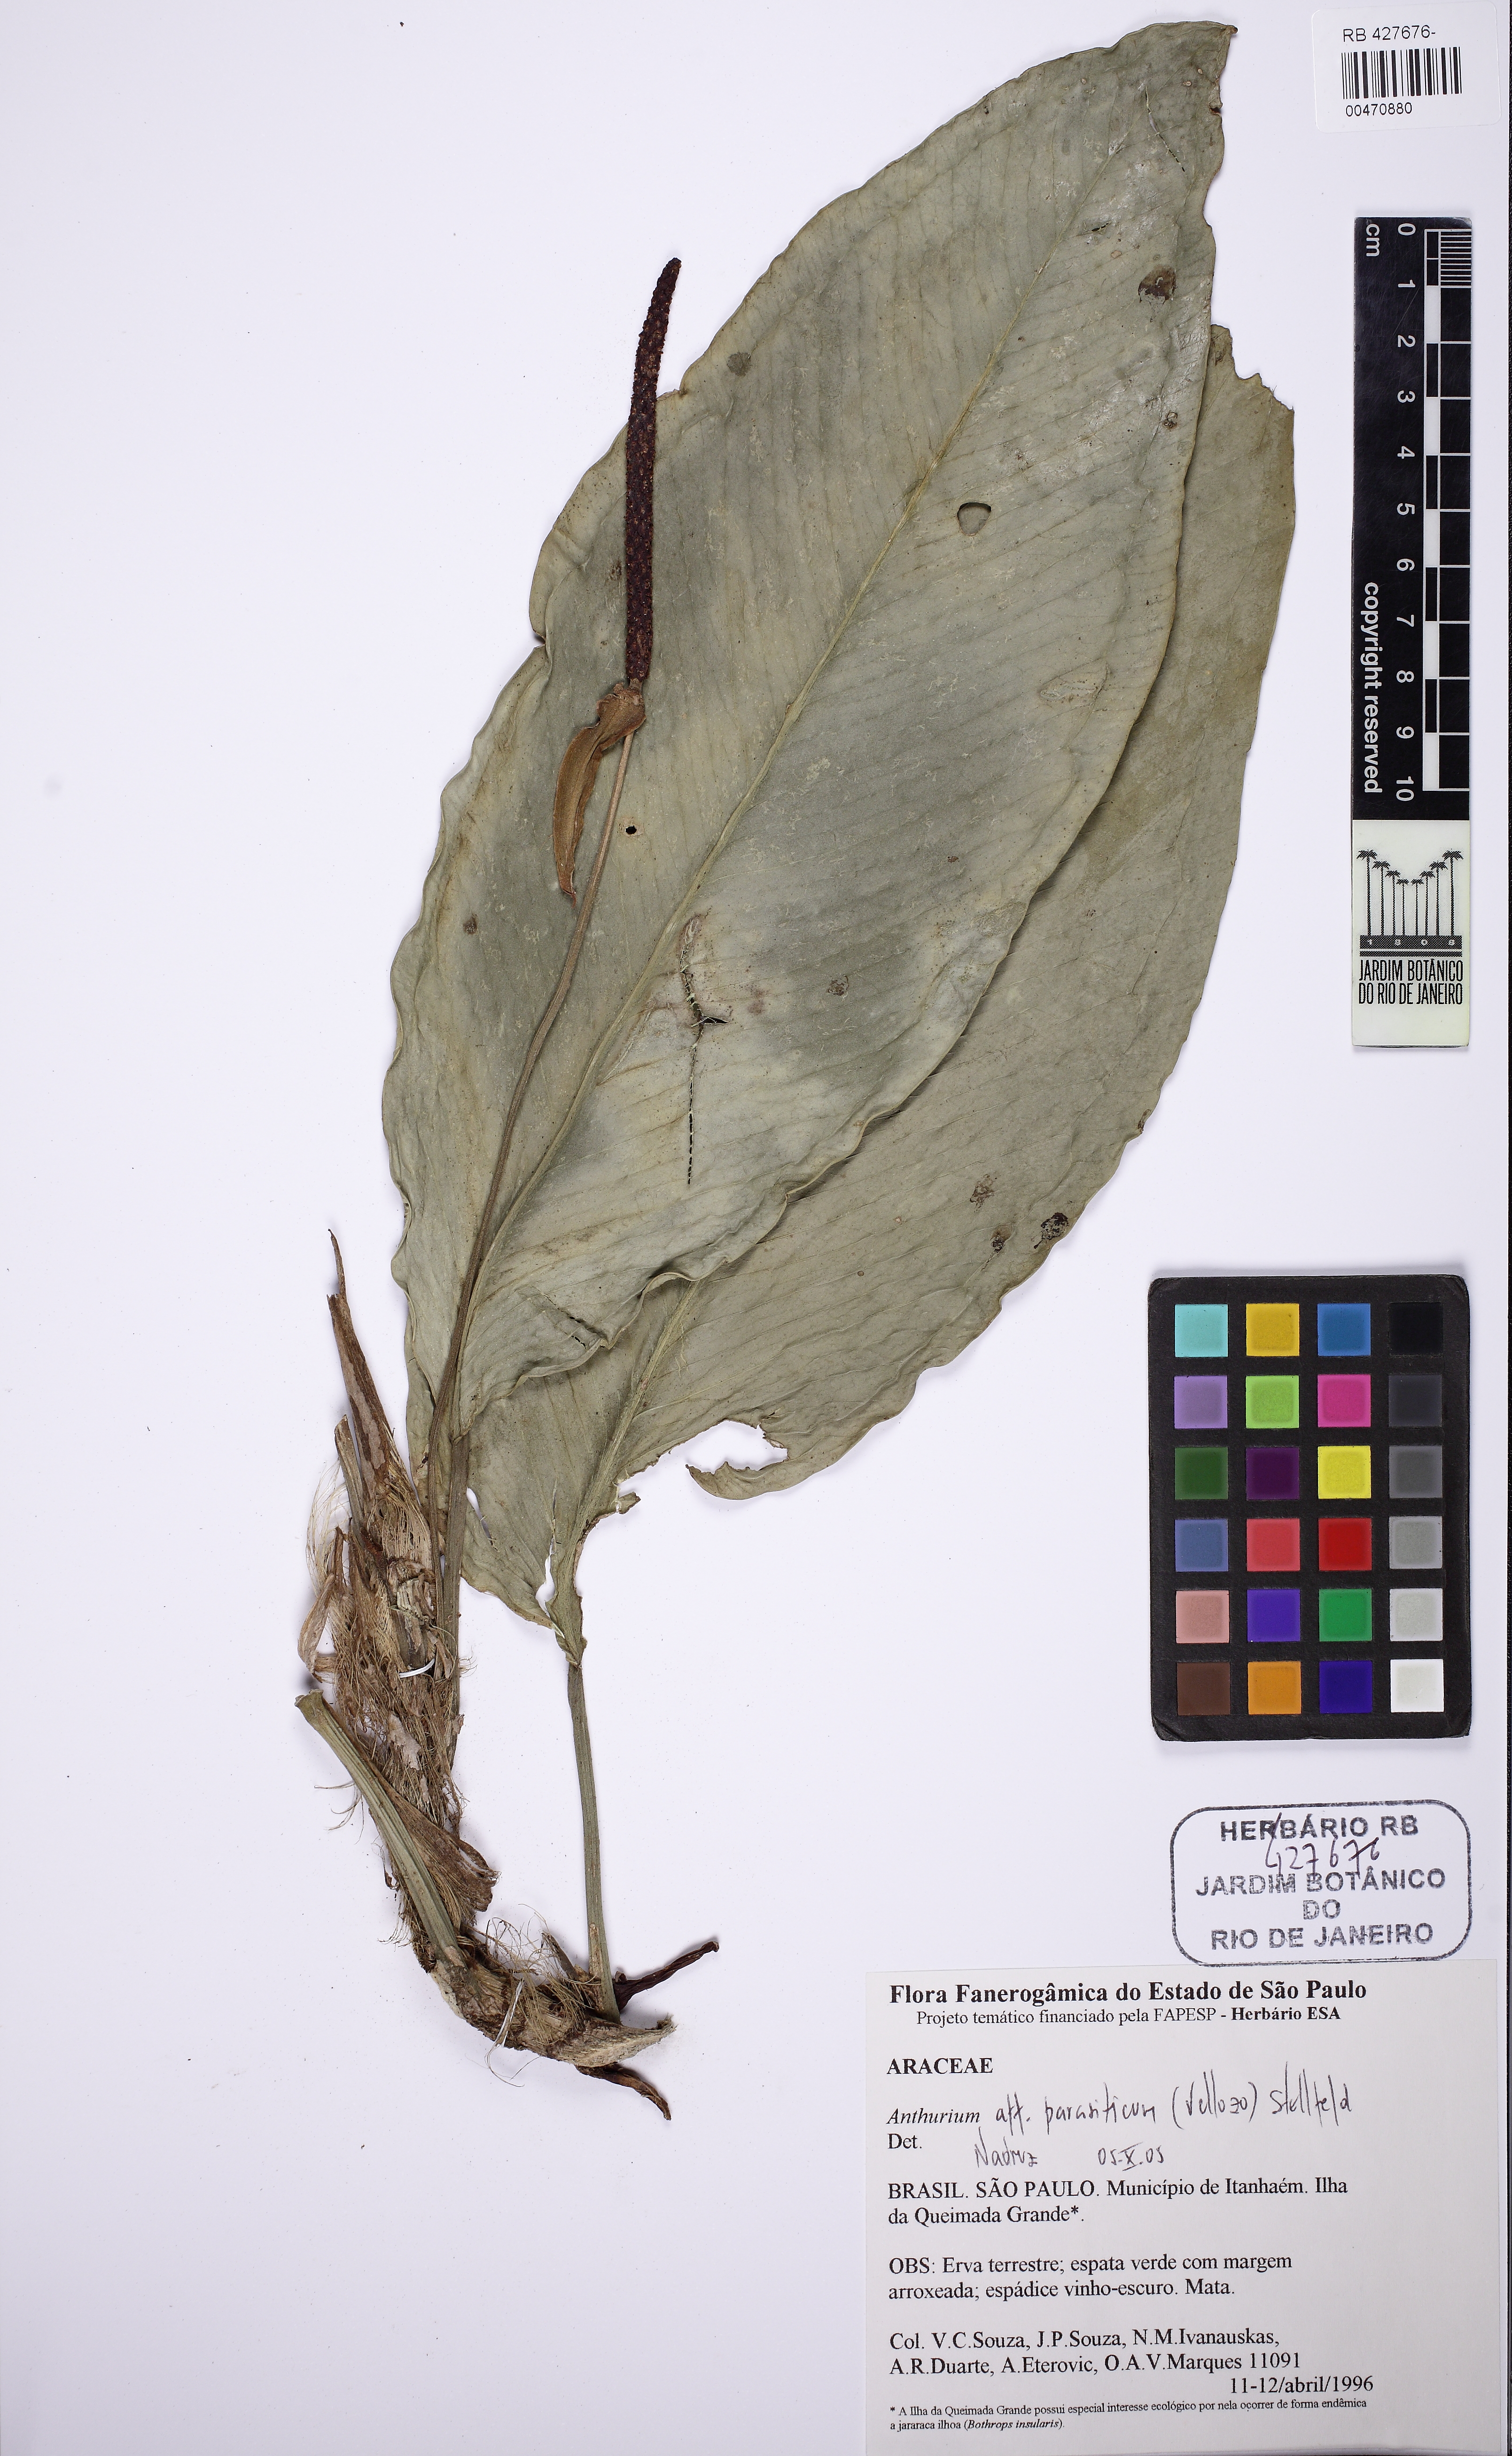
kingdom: Plantae
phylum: Tracheophyta
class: Liliopsida
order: Alismatales
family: Araceae
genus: Anthurium
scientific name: Anthurium parasiticum
